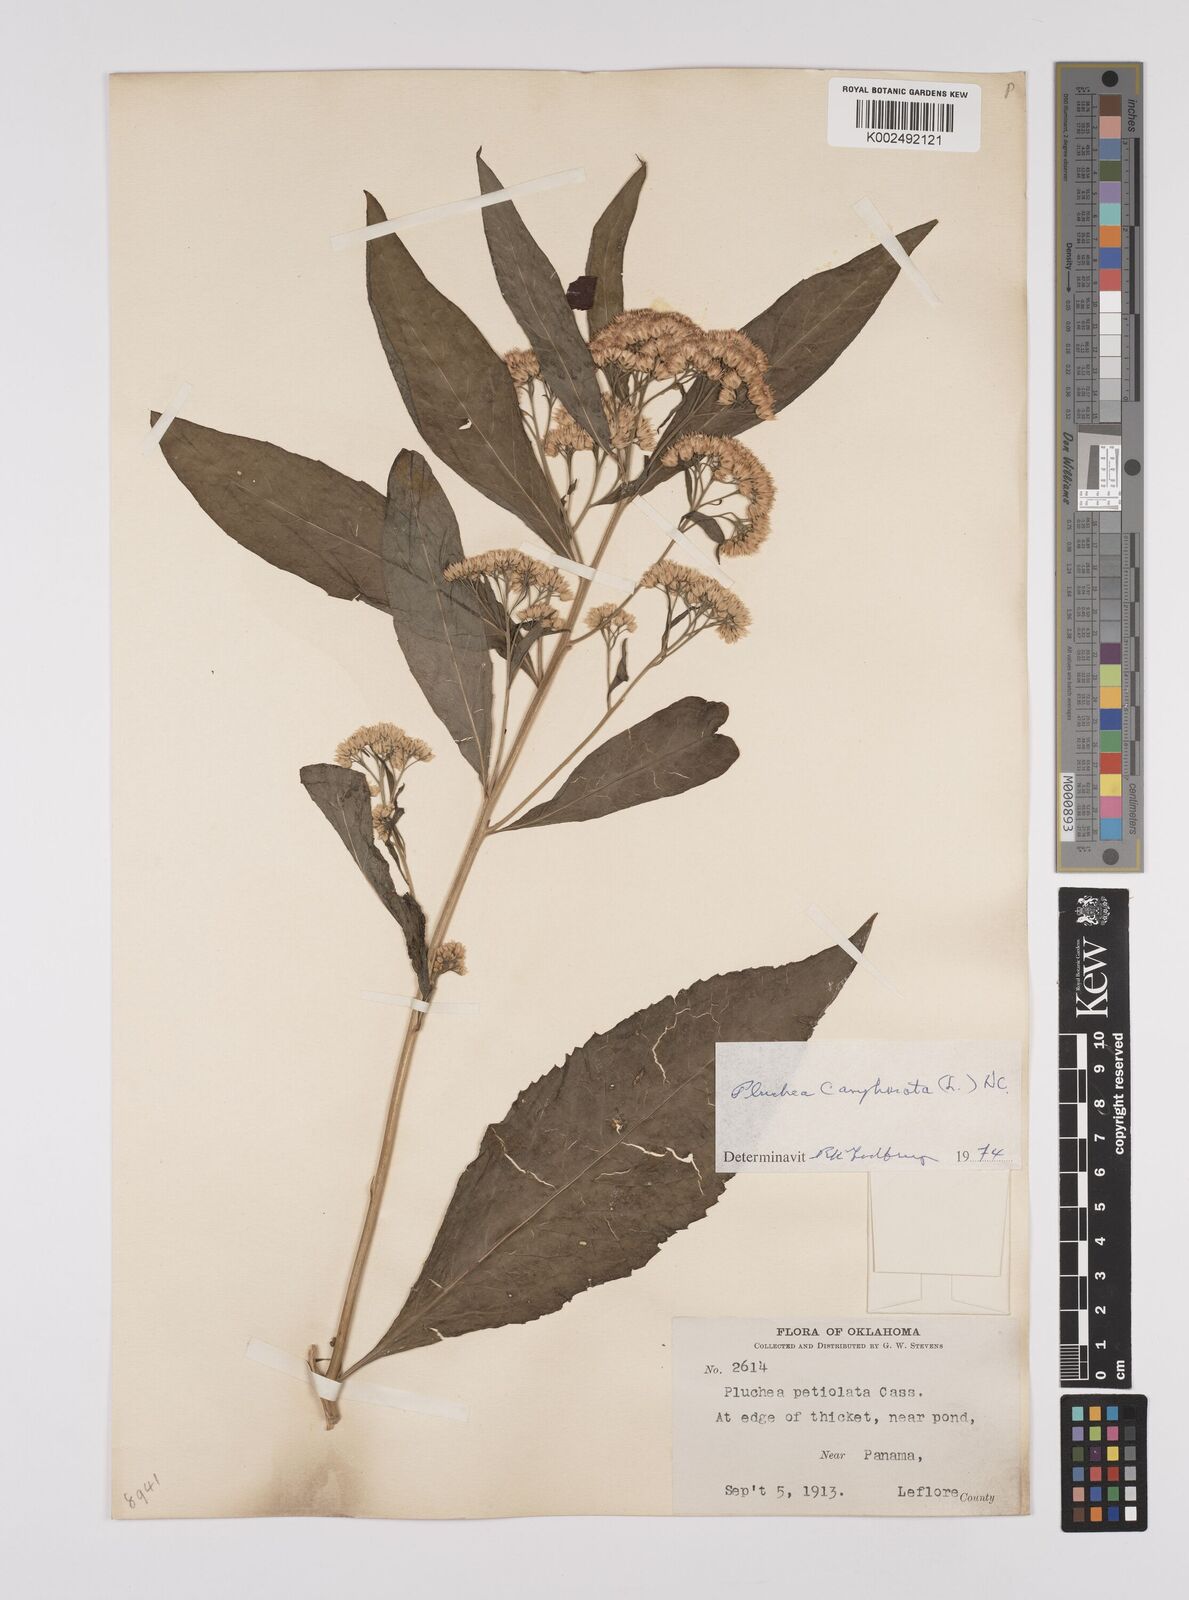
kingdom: Plantae
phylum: Tracheophyta
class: Magnoliopsida
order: Asterales
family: Asteraceae
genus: Pluchea
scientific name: Pluchea camphorata
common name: Camphor pluchea
